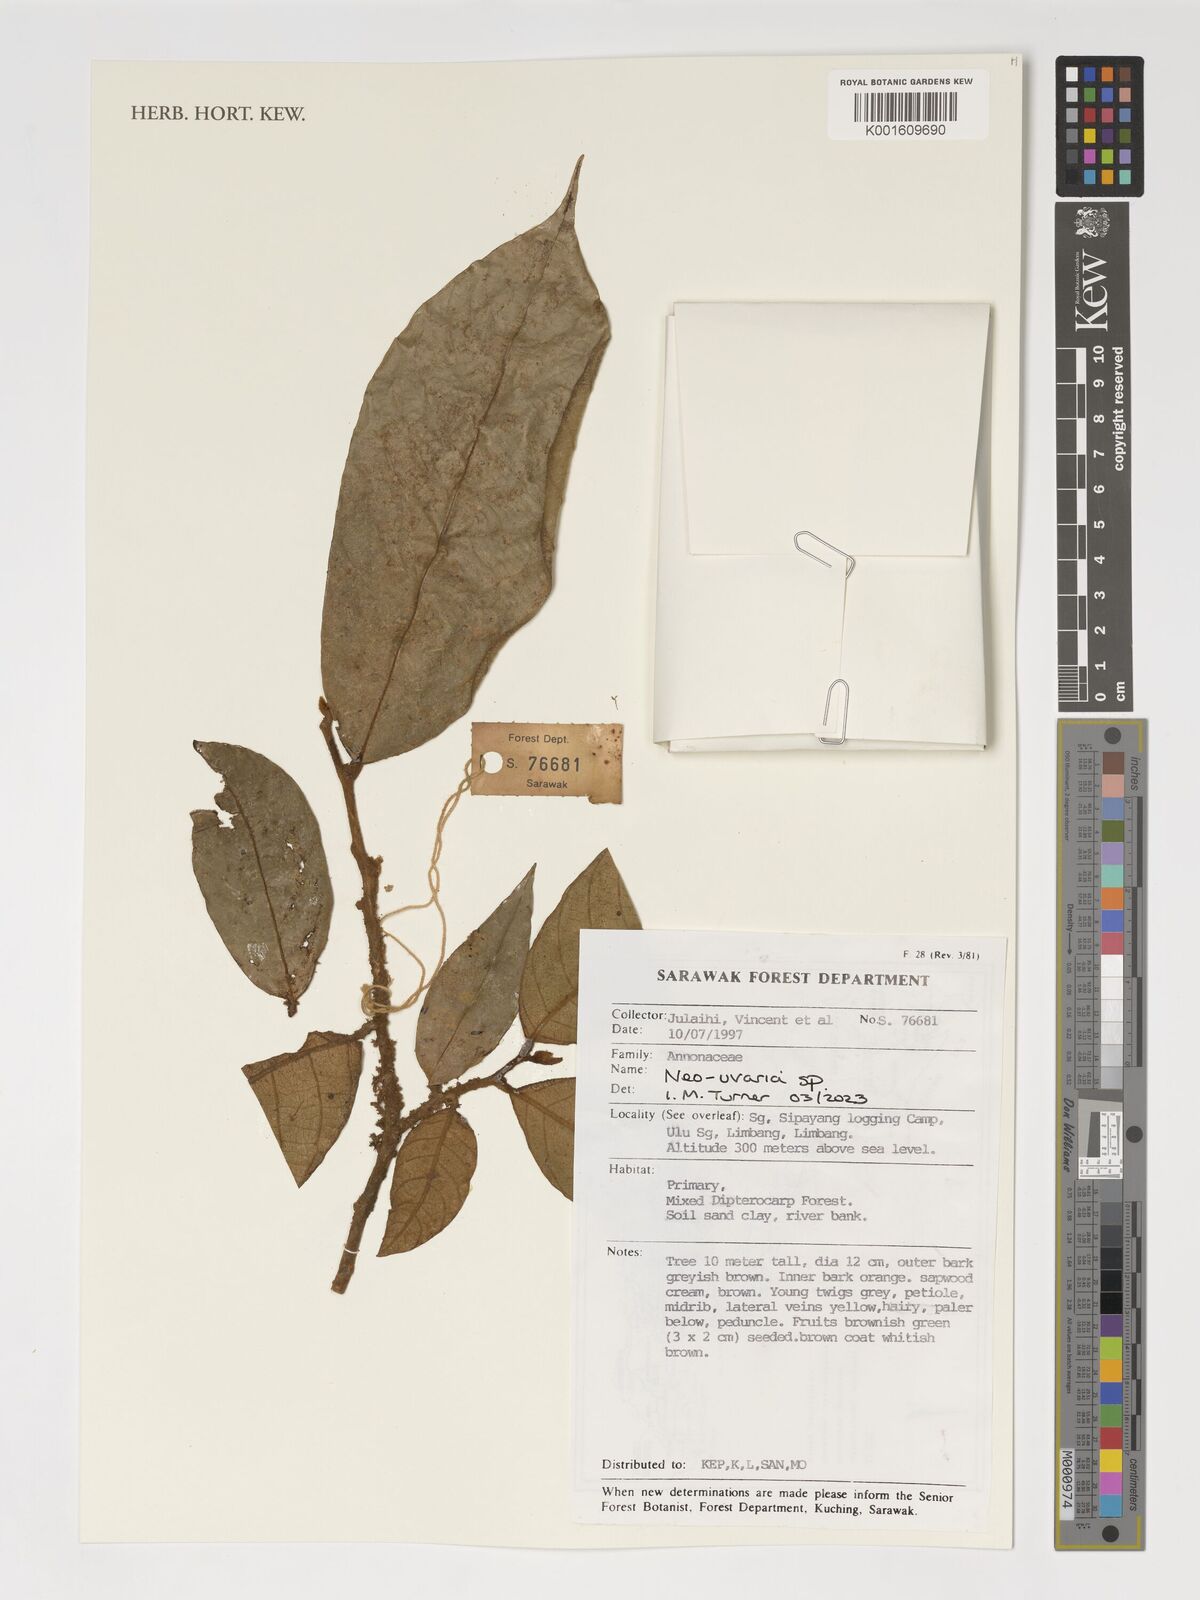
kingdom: Plantae
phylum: Tracheophyta
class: Magnoliopsida
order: Magnoliales
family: Annonaceae
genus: Neo-uvaria
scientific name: Neo-uvaria
